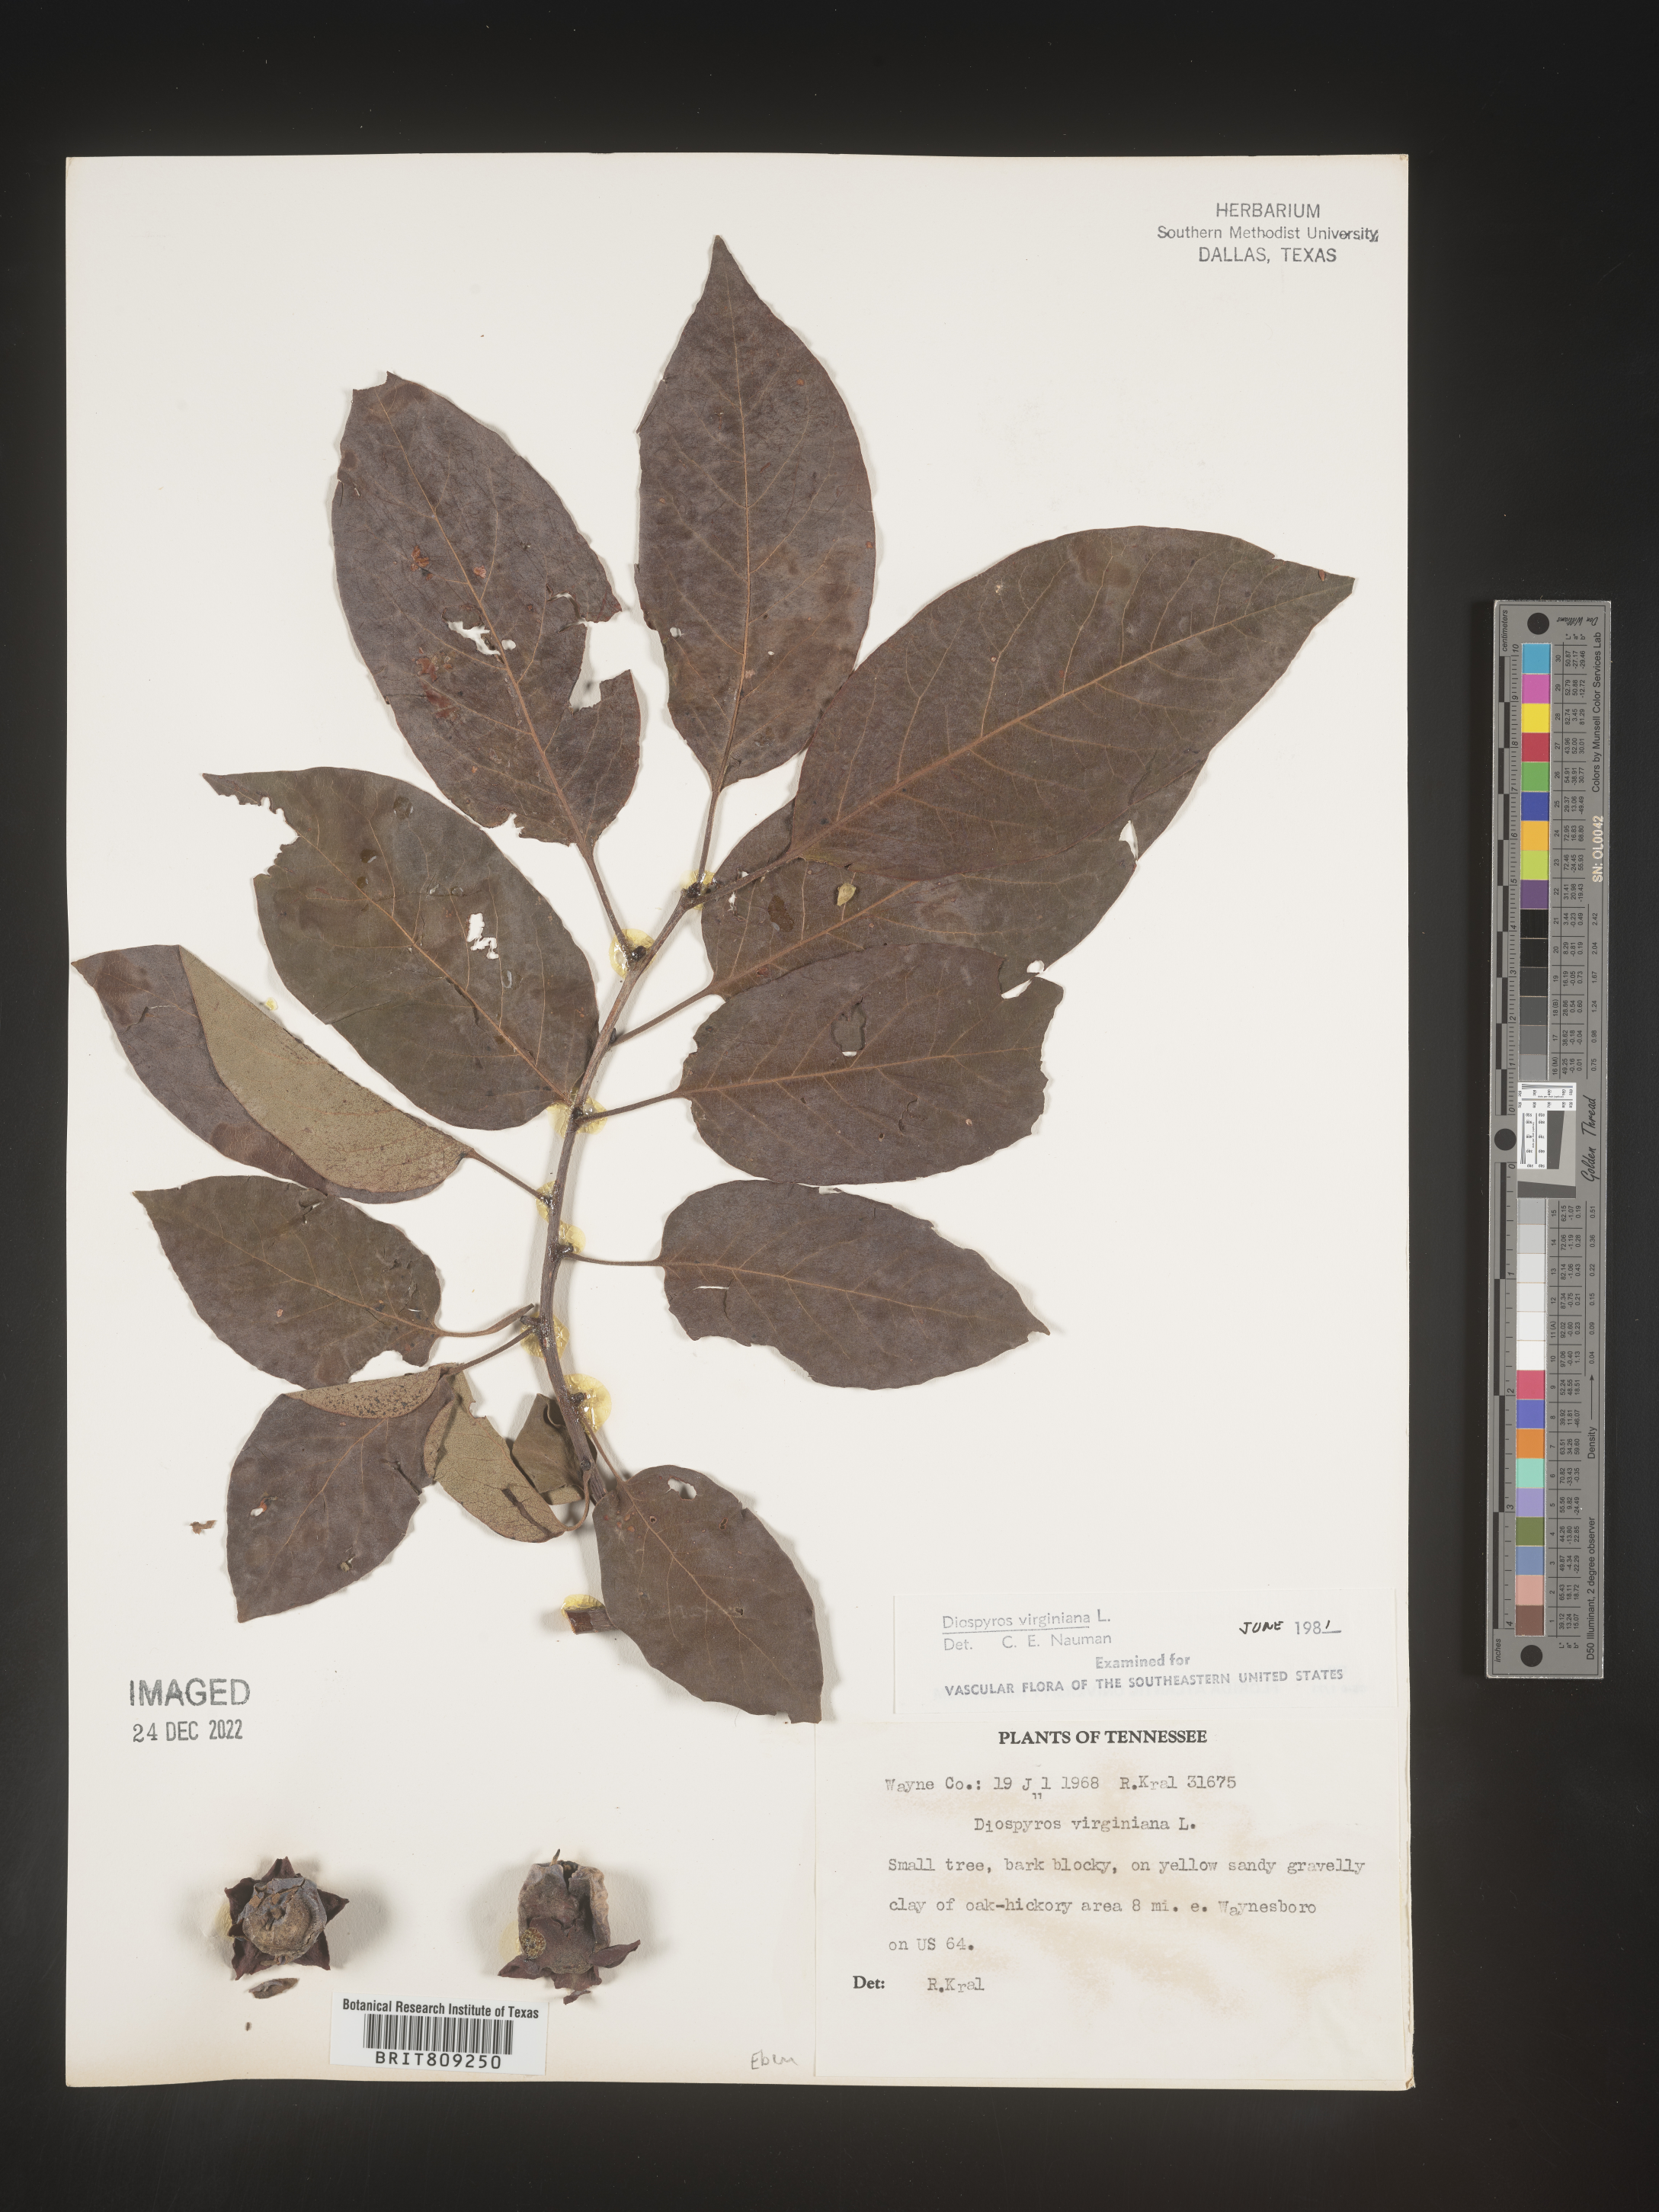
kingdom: Plantae
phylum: Tracheophyta
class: Magnoliopsida
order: Ericales
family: Ebenaceae
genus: Diospyros
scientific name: Diospyros virginiana
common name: Persimmon
